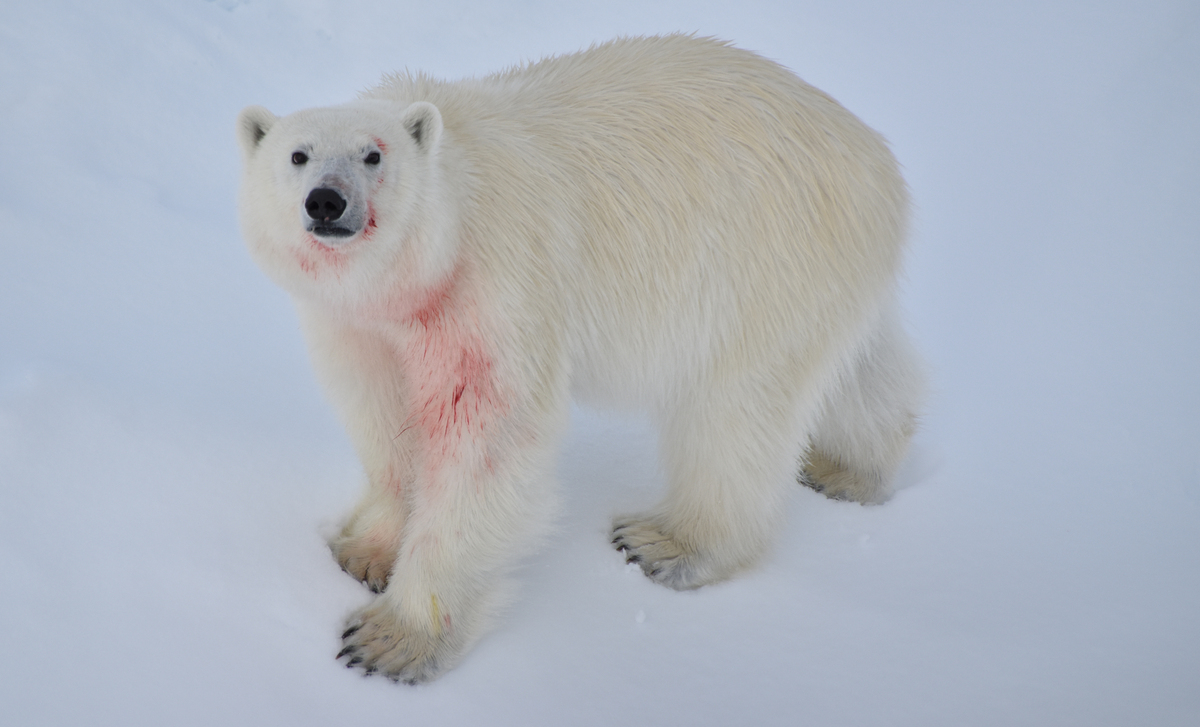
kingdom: Animalia
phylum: Chordata
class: Mammalia
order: Carnivora
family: Ursidae
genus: Ursus
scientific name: Ursus maritimus
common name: Polar Bear
